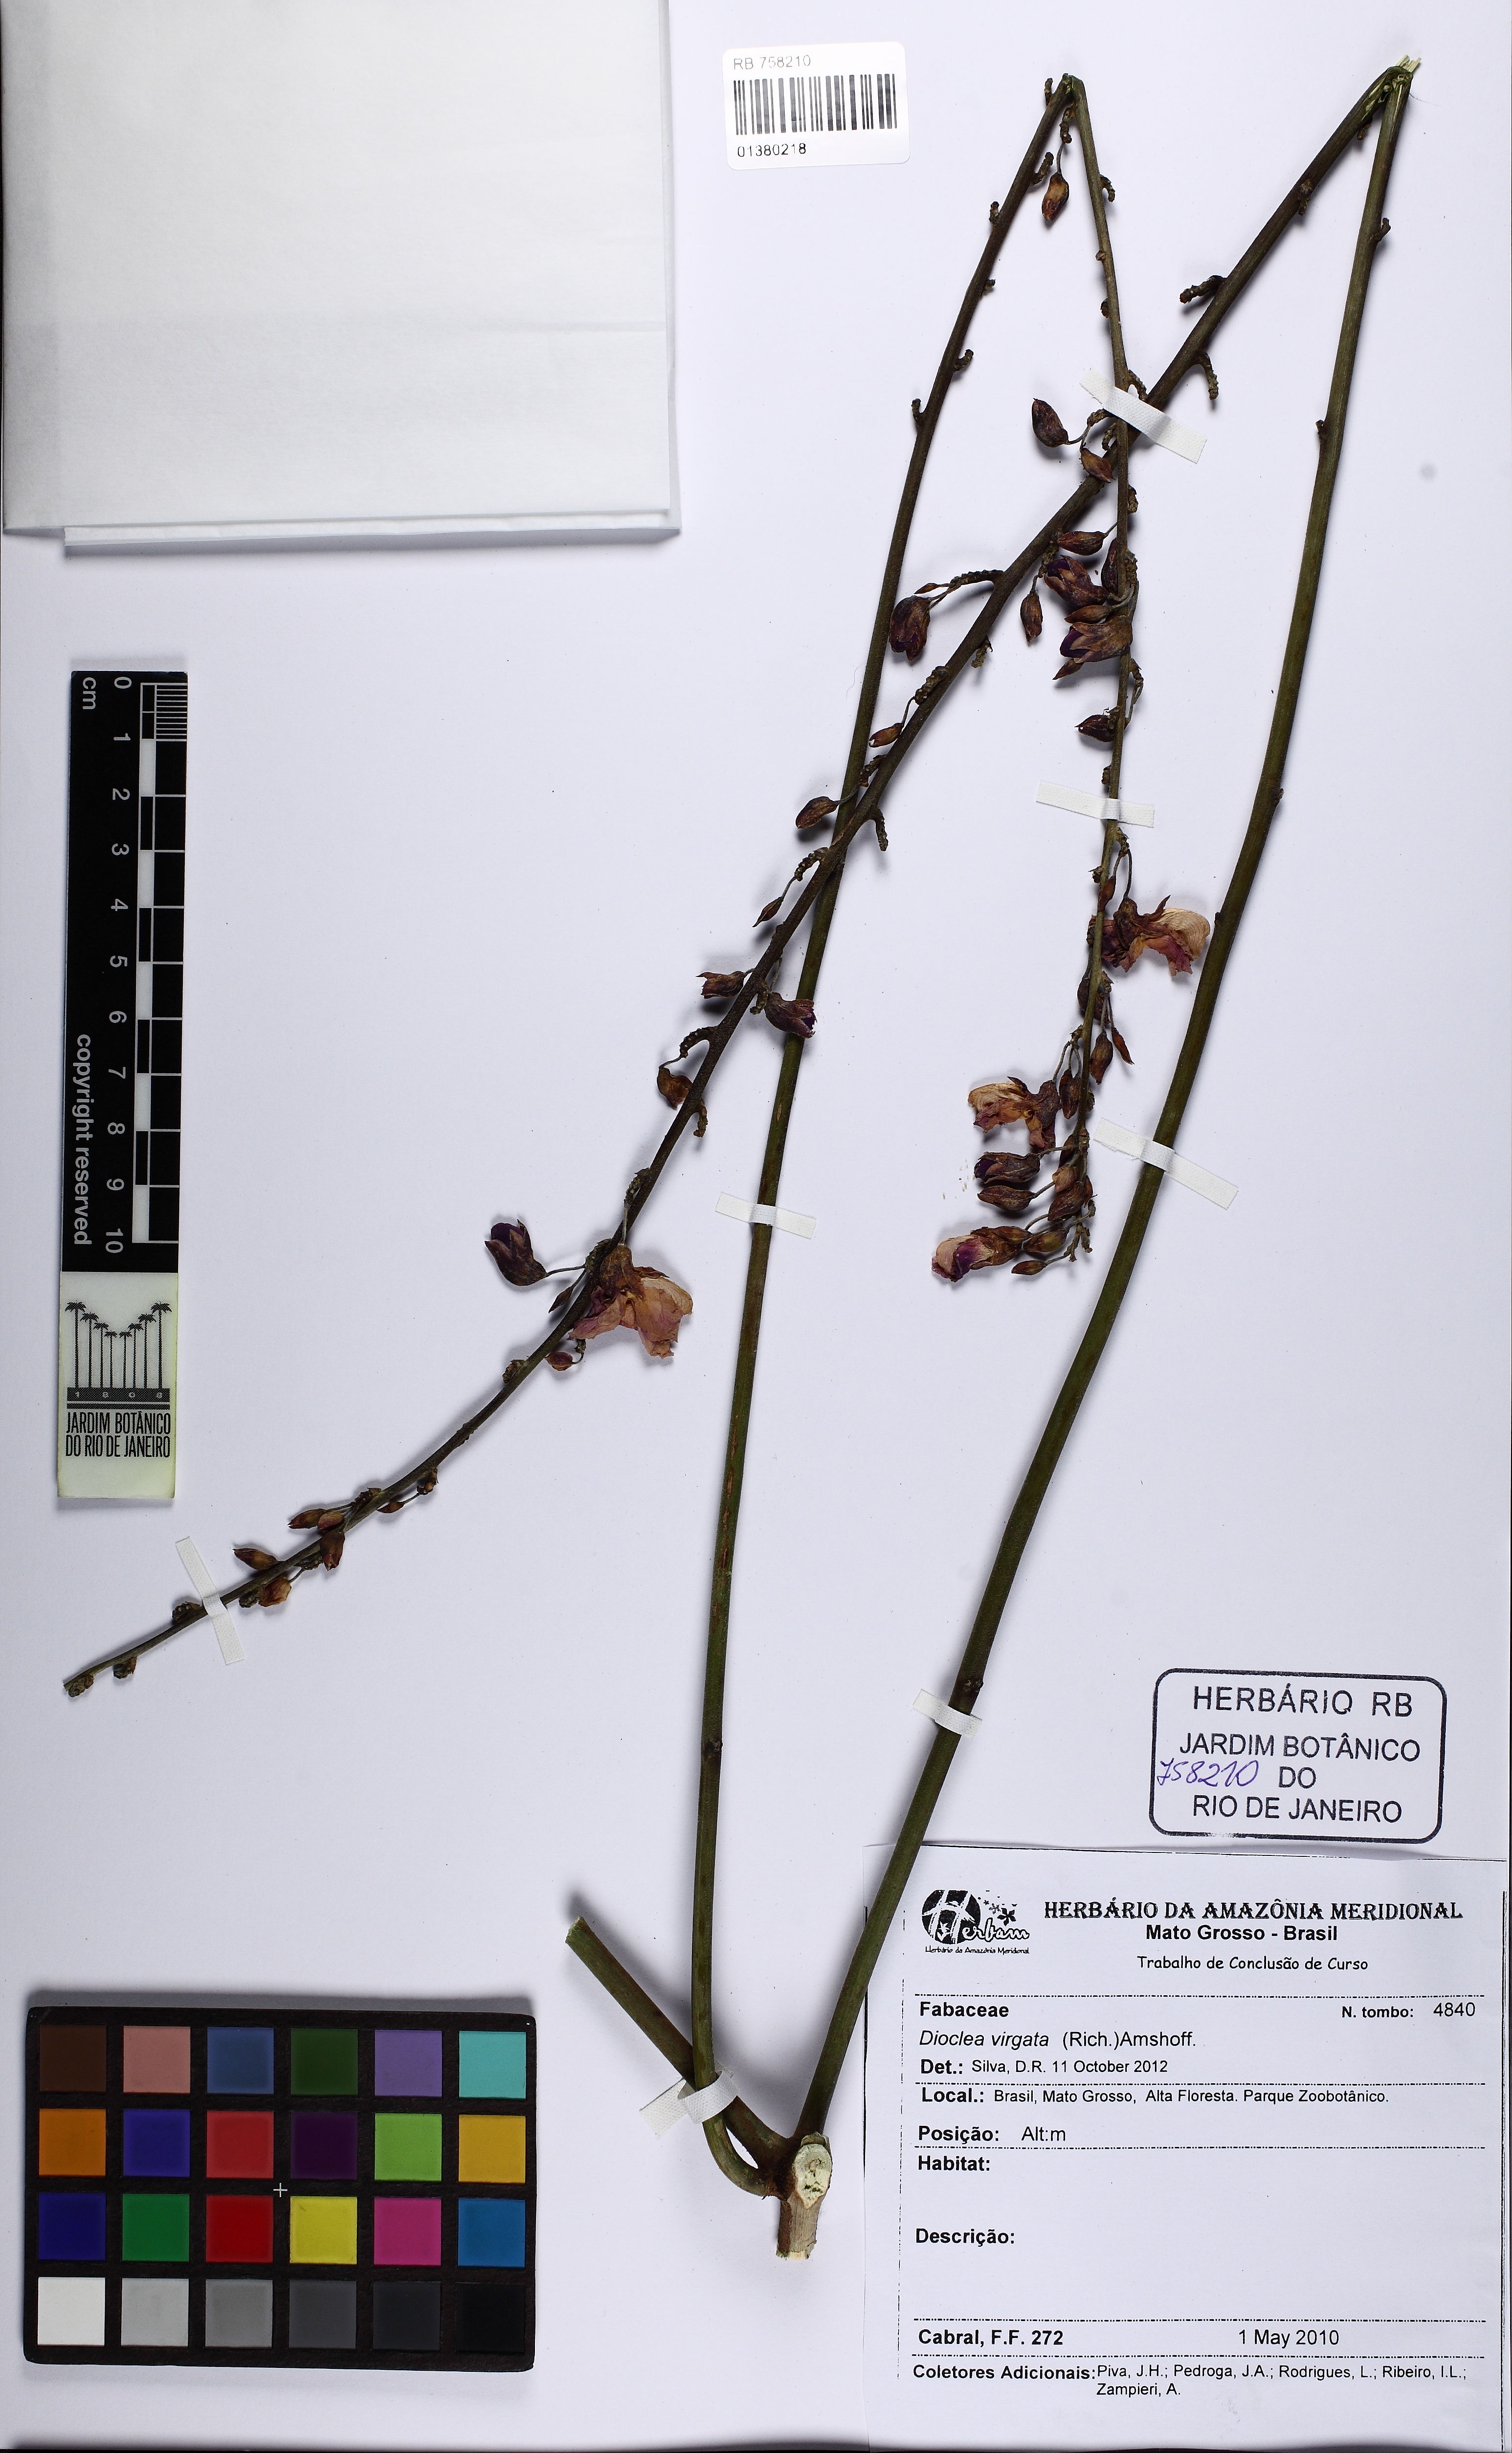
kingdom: Plantae
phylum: Tracheophyta
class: Magnoliopsida
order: Fabales
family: Fabaceae
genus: Dioclea
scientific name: Dioclea virgata
